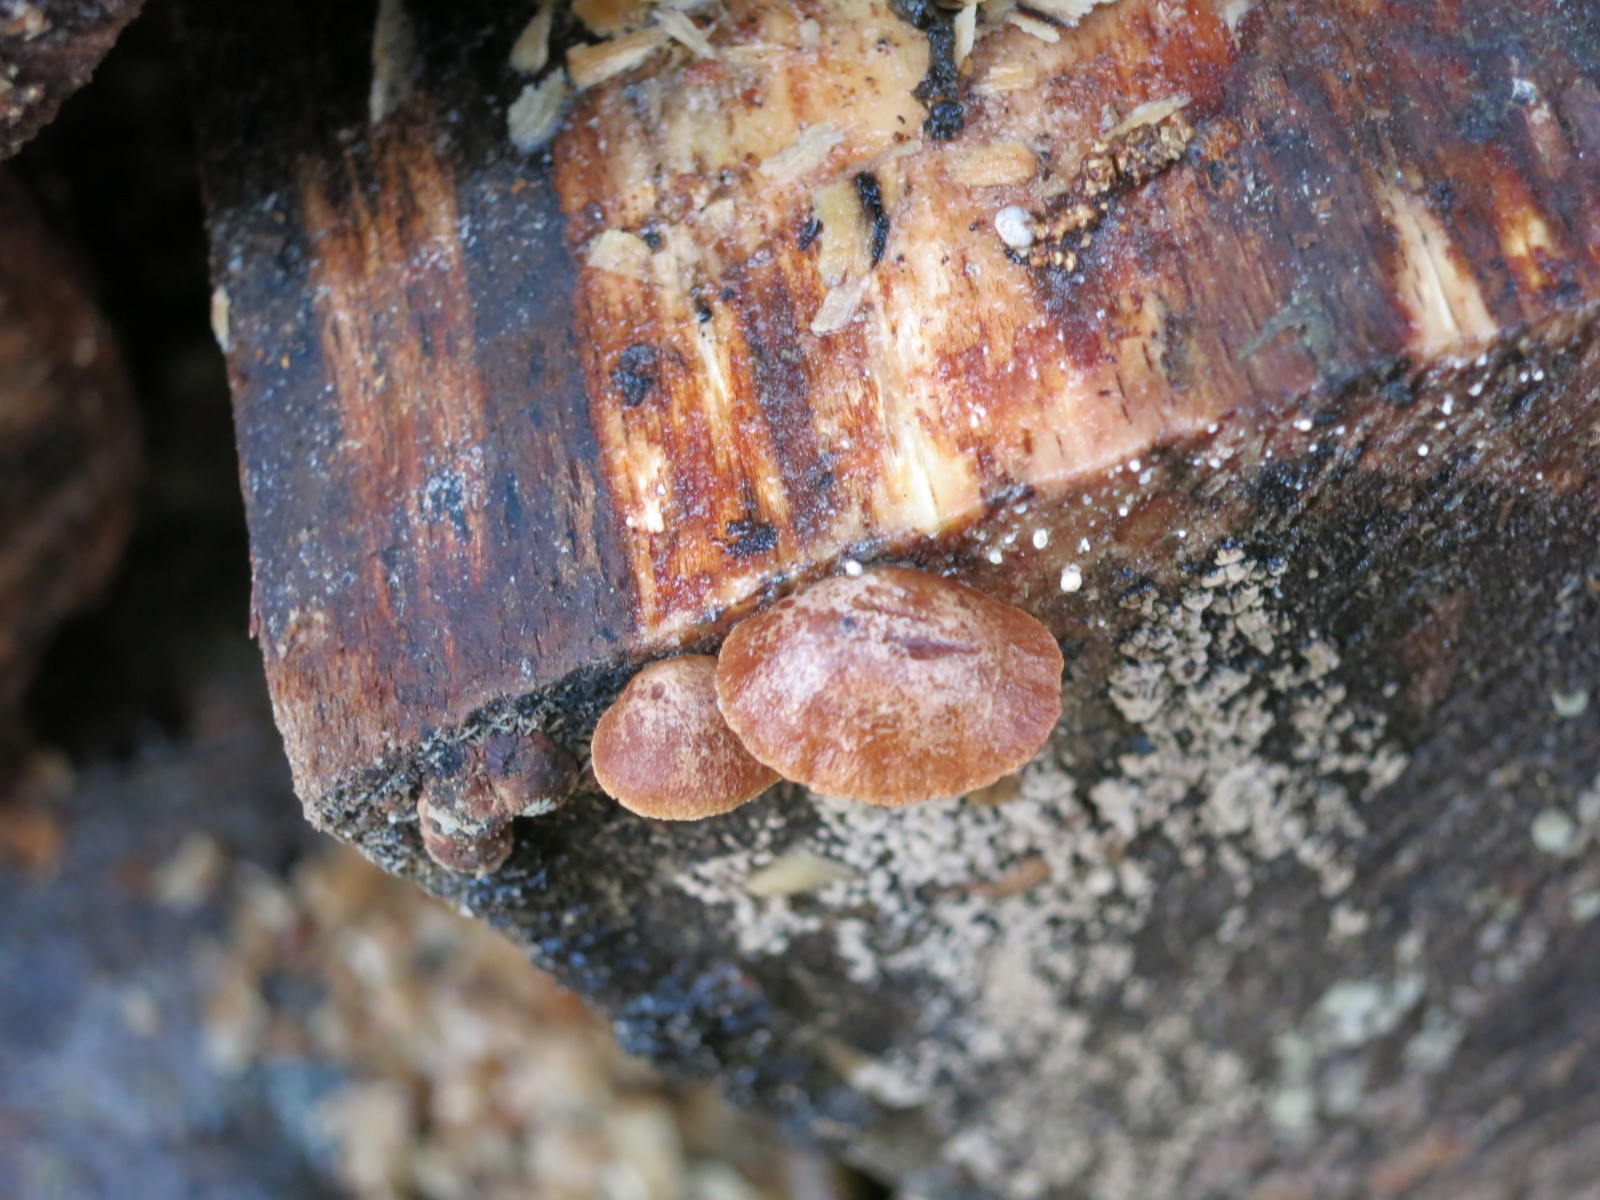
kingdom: Fungi
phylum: Basidiomycota
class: Agaricomycetes
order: Agaricales
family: Strophariaceae
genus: Deconica
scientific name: Deconica horizontalis
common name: ved-stråhat
